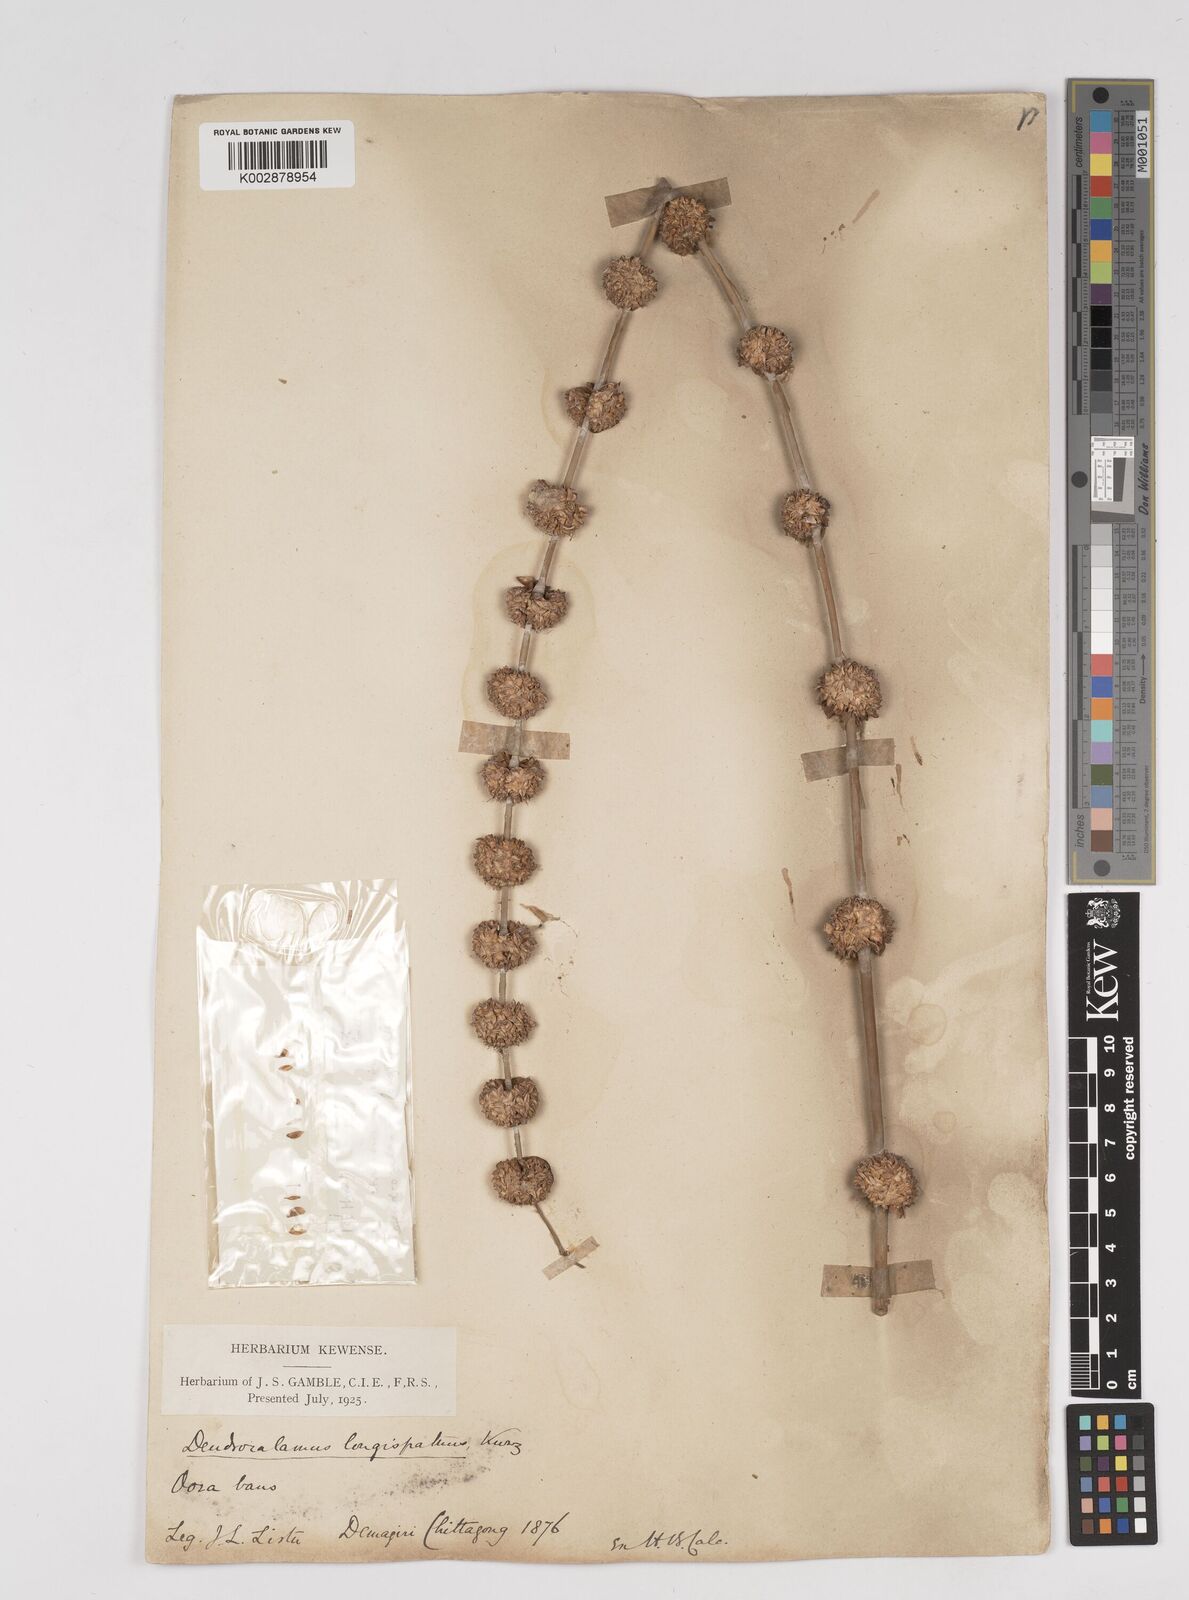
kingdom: Plantae
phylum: Tracheophyta
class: Liliopsida
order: Poales
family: Poaceae
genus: Dendrocalamus
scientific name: Dendrocalamus longispathus
